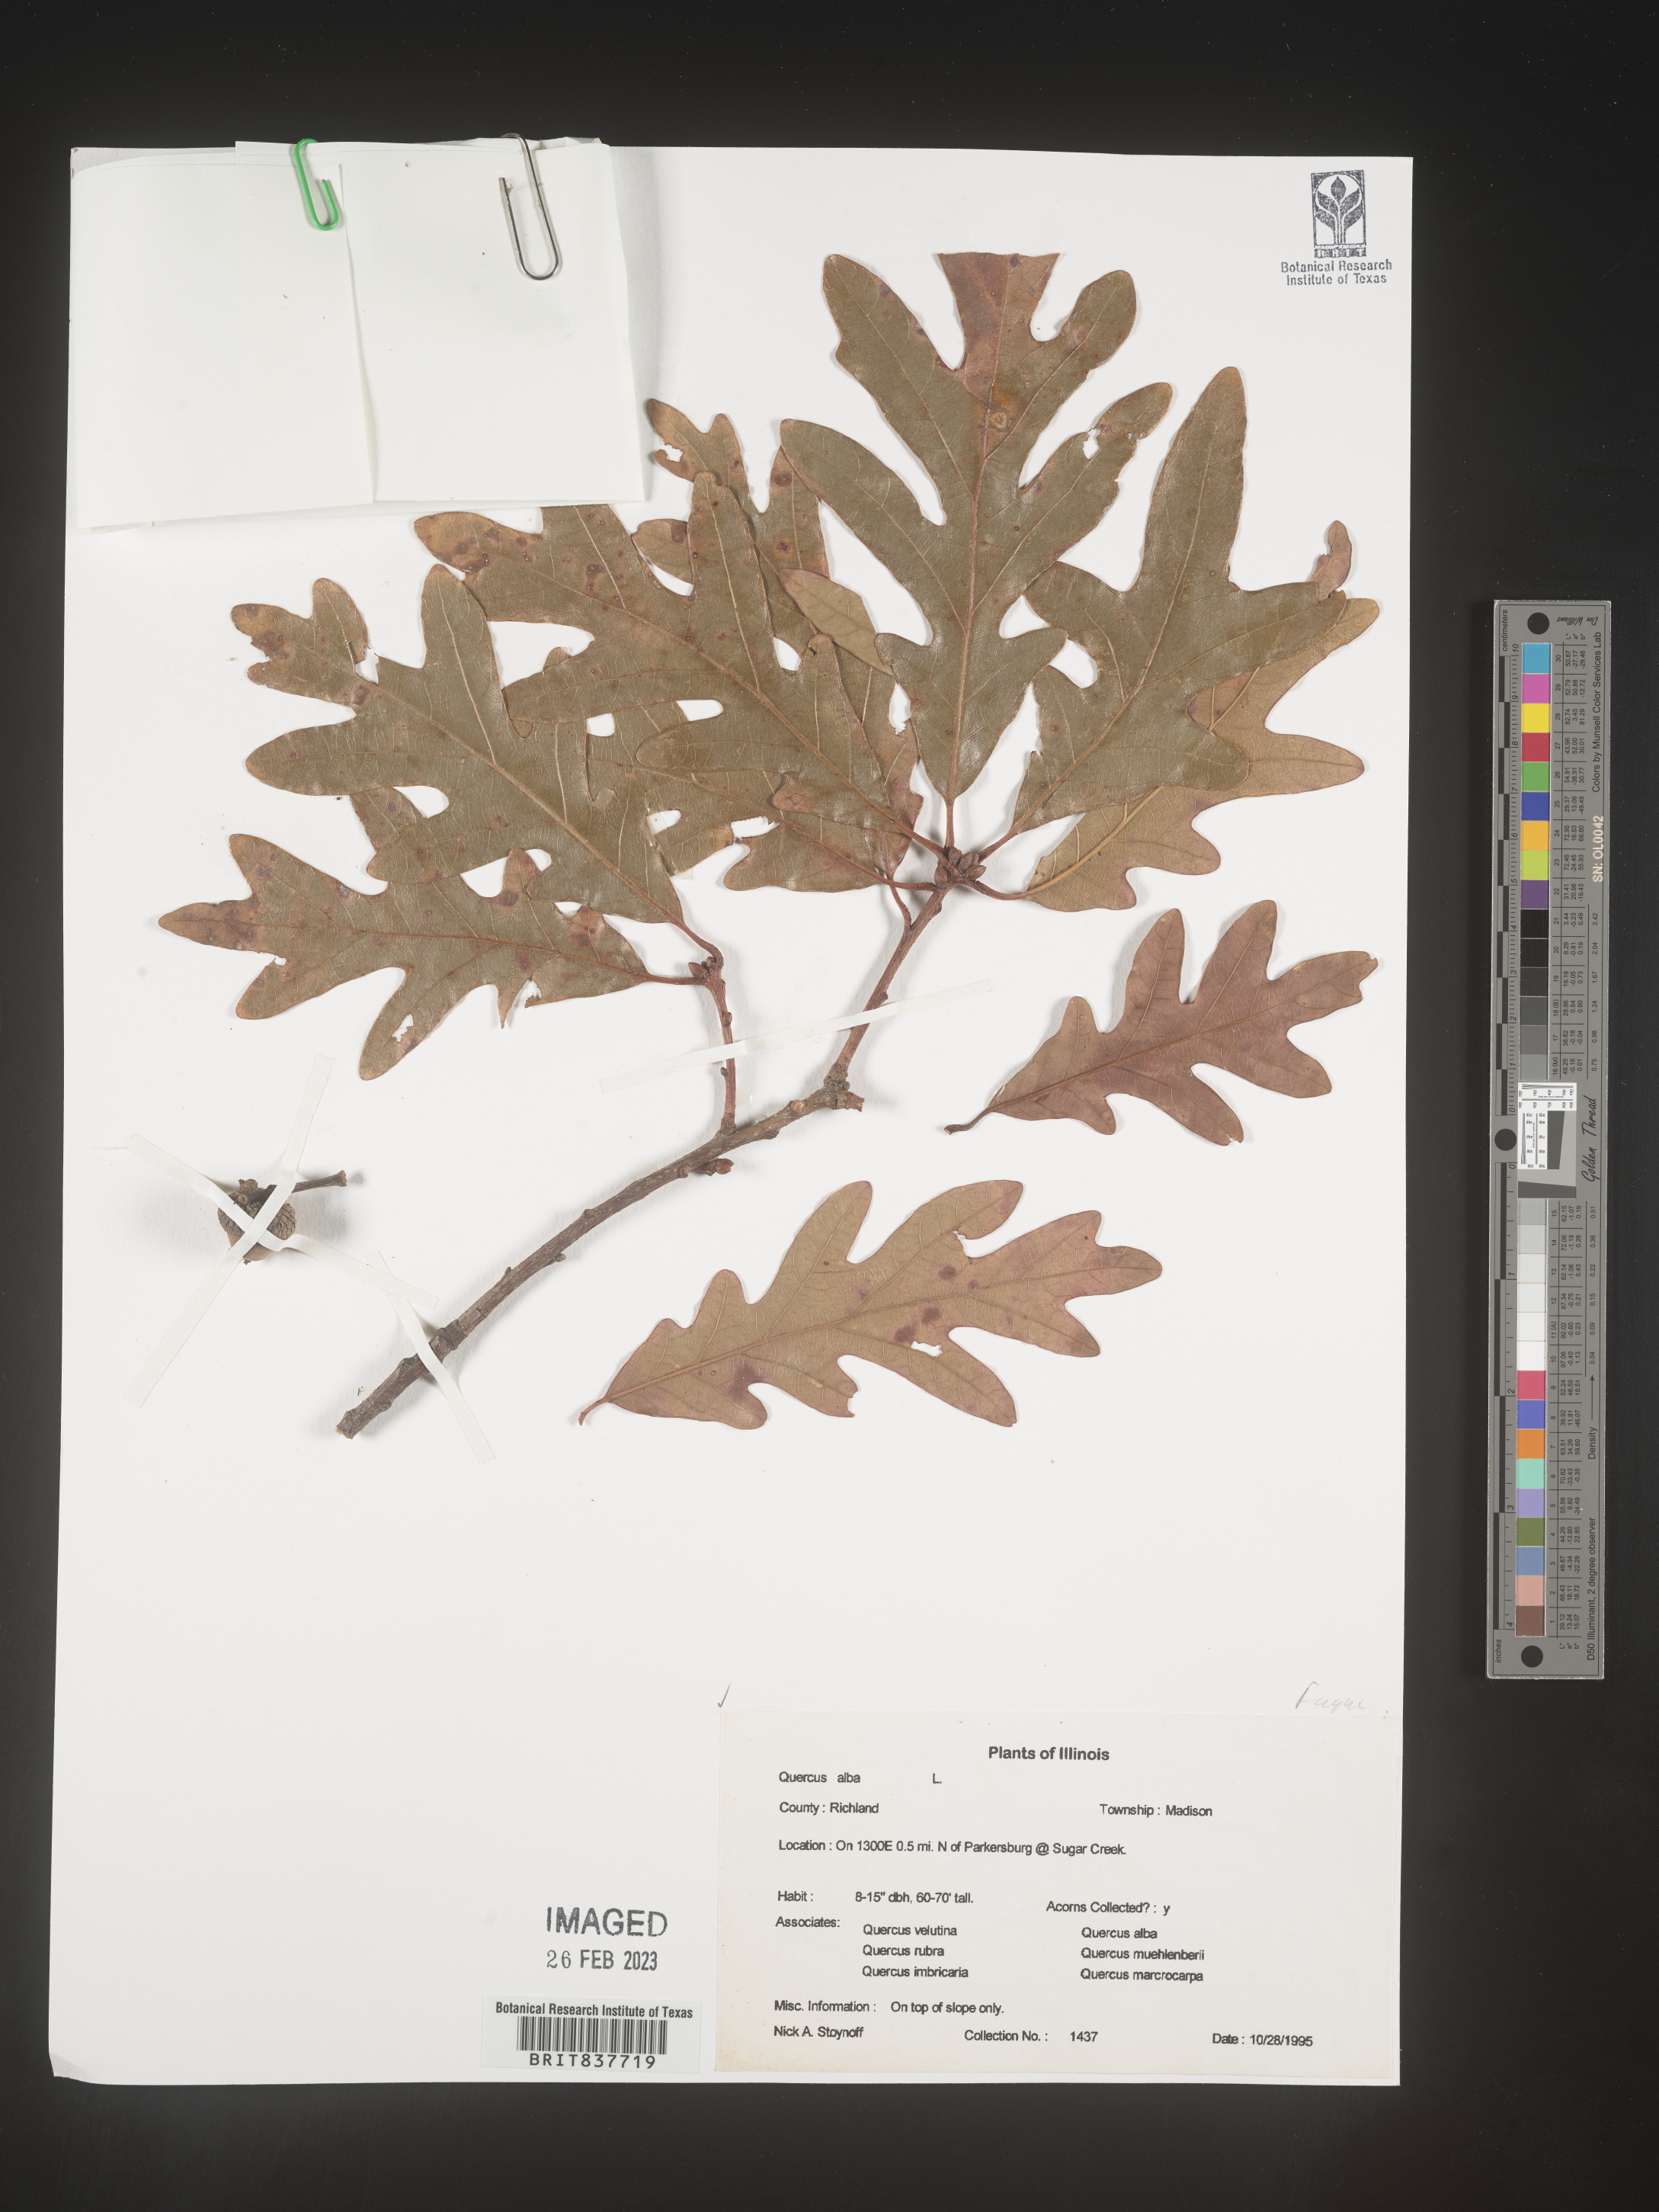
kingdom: Plantae
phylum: Tracheophyta
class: Magnoliopsida
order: Fagales
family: Fagaceae
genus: Quercus
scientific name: Quercus alba
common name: White oak
